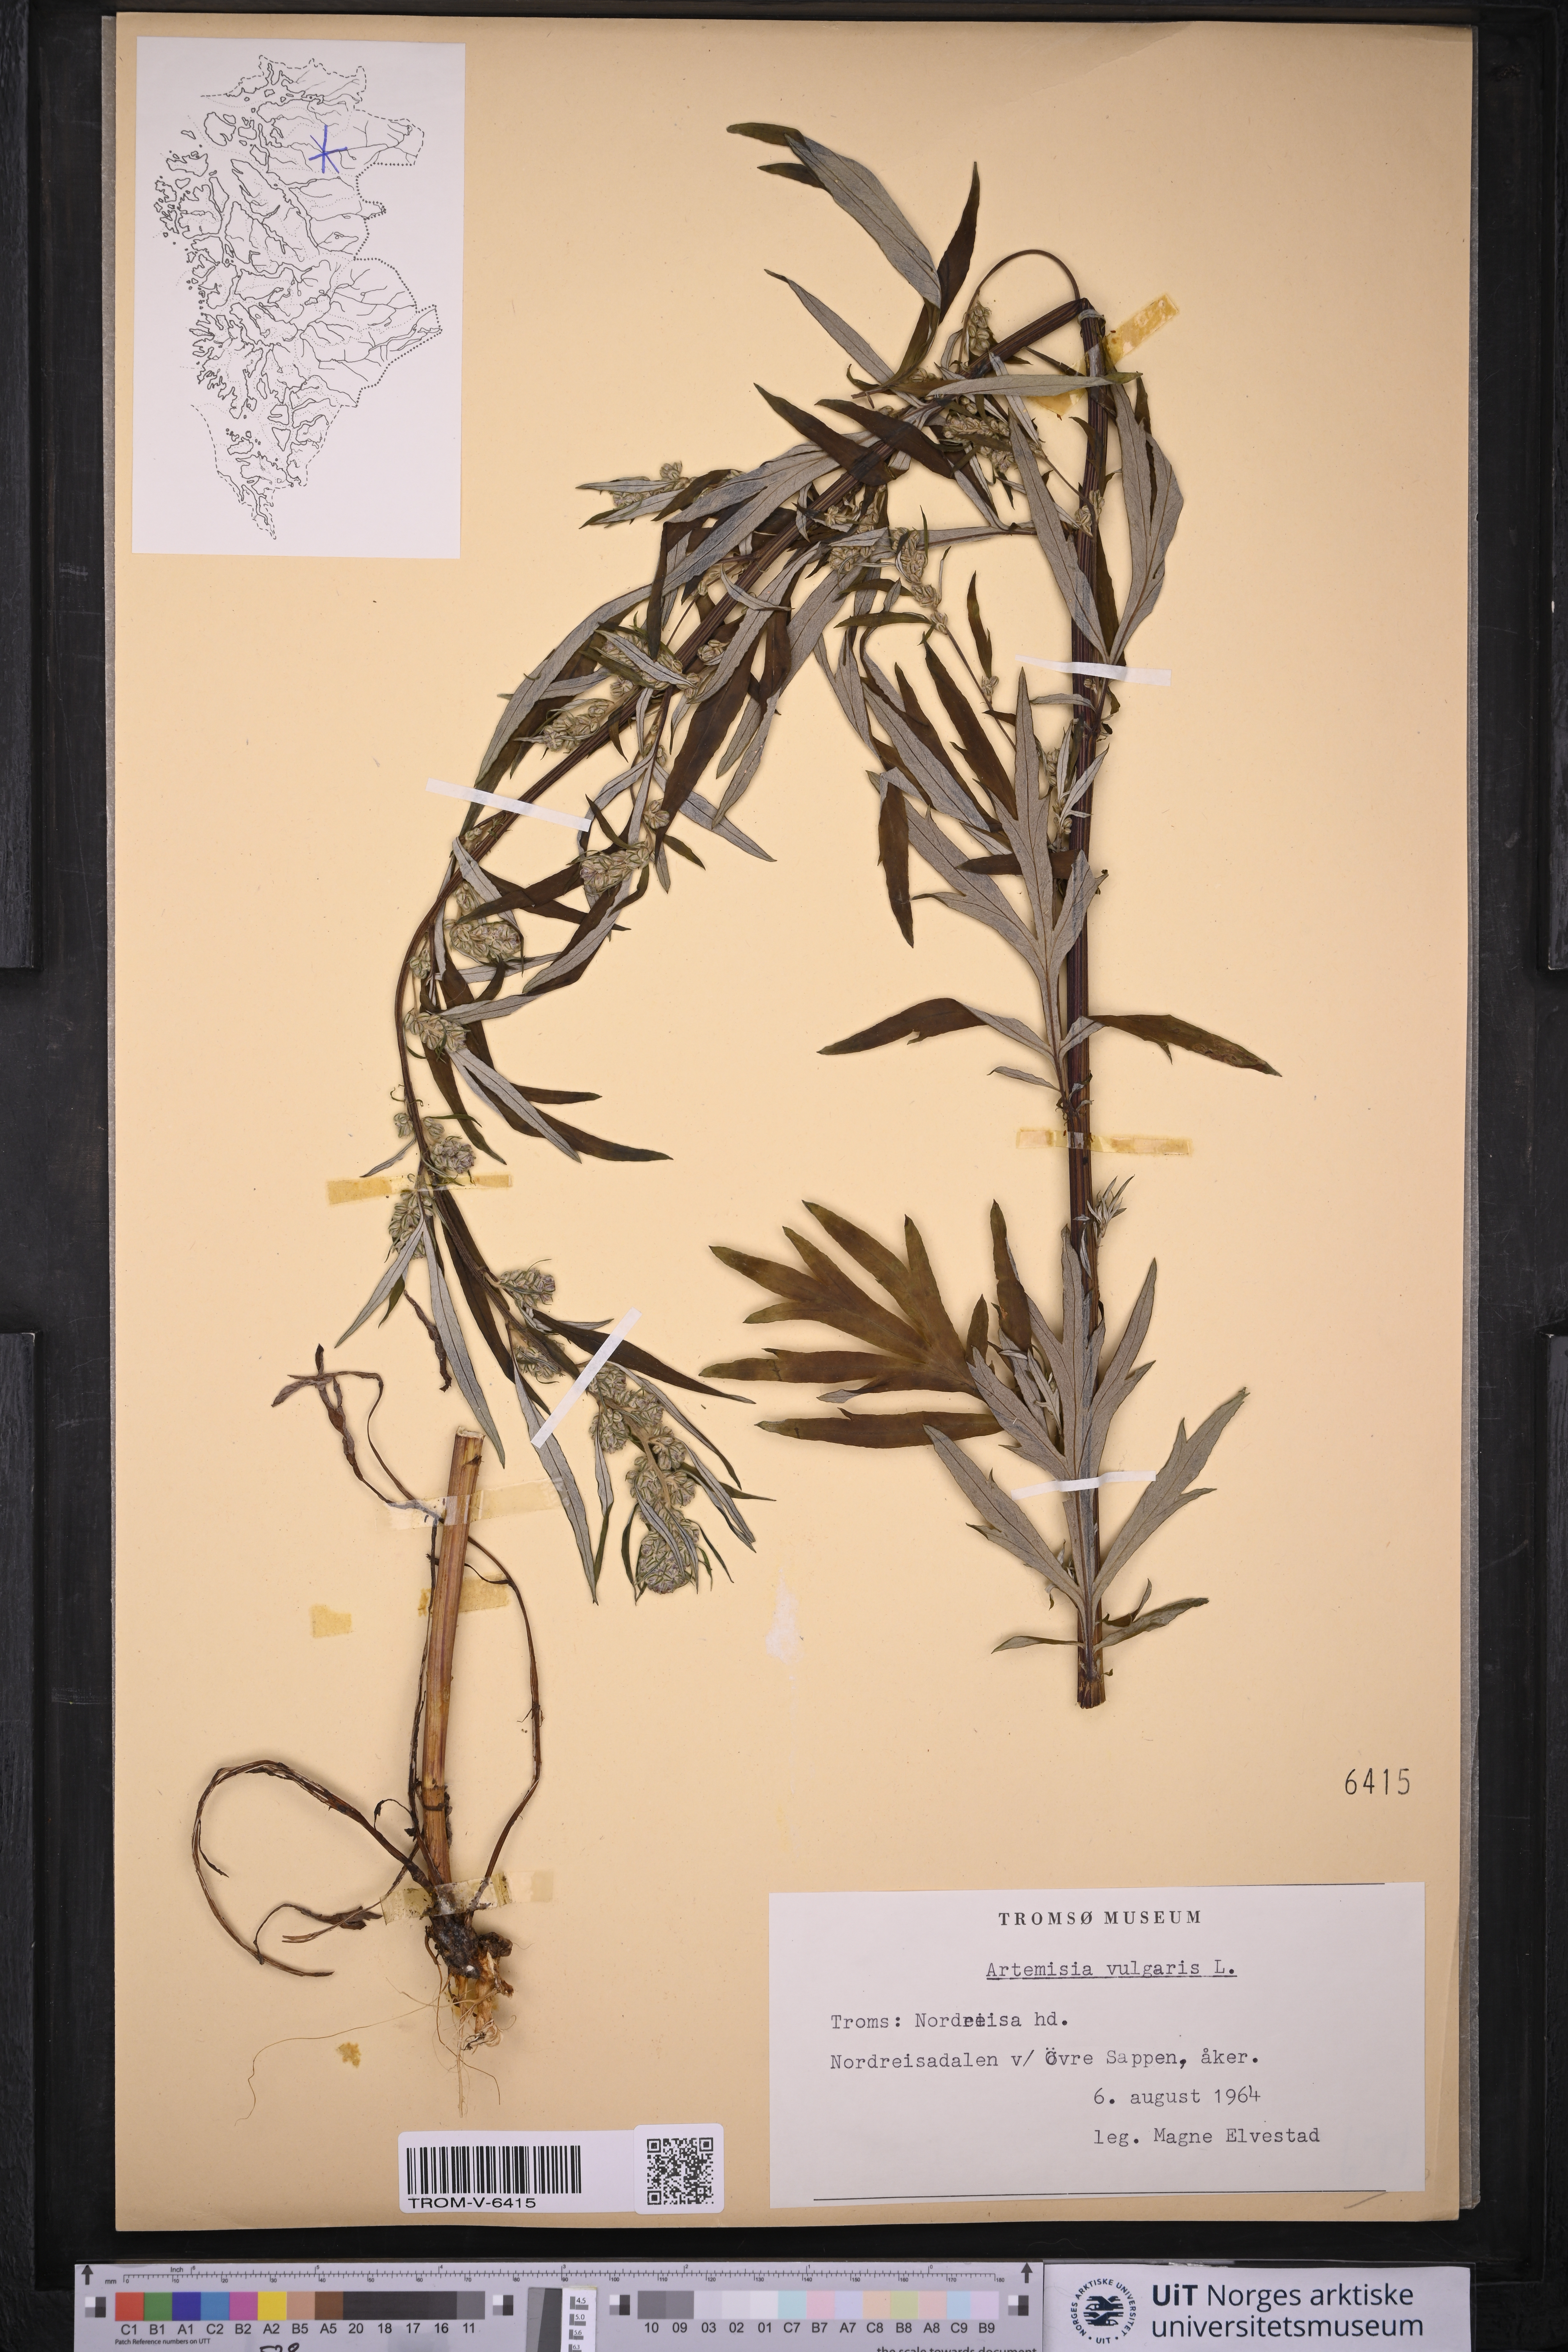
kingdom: Plantae
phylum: Tracheophyta
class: Magnoliopsida
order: Asterales
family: Asteraceae
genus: Artemisia
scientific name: Artemisia vulgaris
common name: Mugwort
